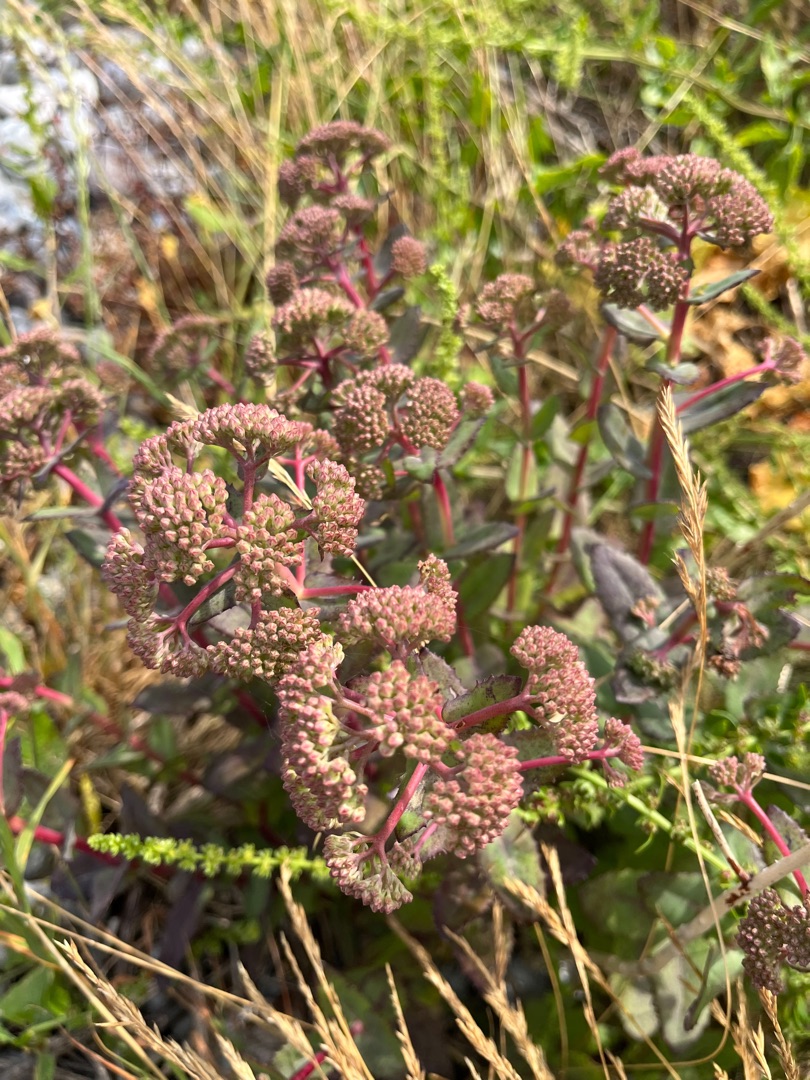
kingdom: Plantae
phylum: Tracheophyta
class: Magnoliopsida
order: Saxifragales
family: Crassulaceae
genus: Hylotelephium
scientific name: Hylotelephium maximum
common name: Almindelig sankthansurt
